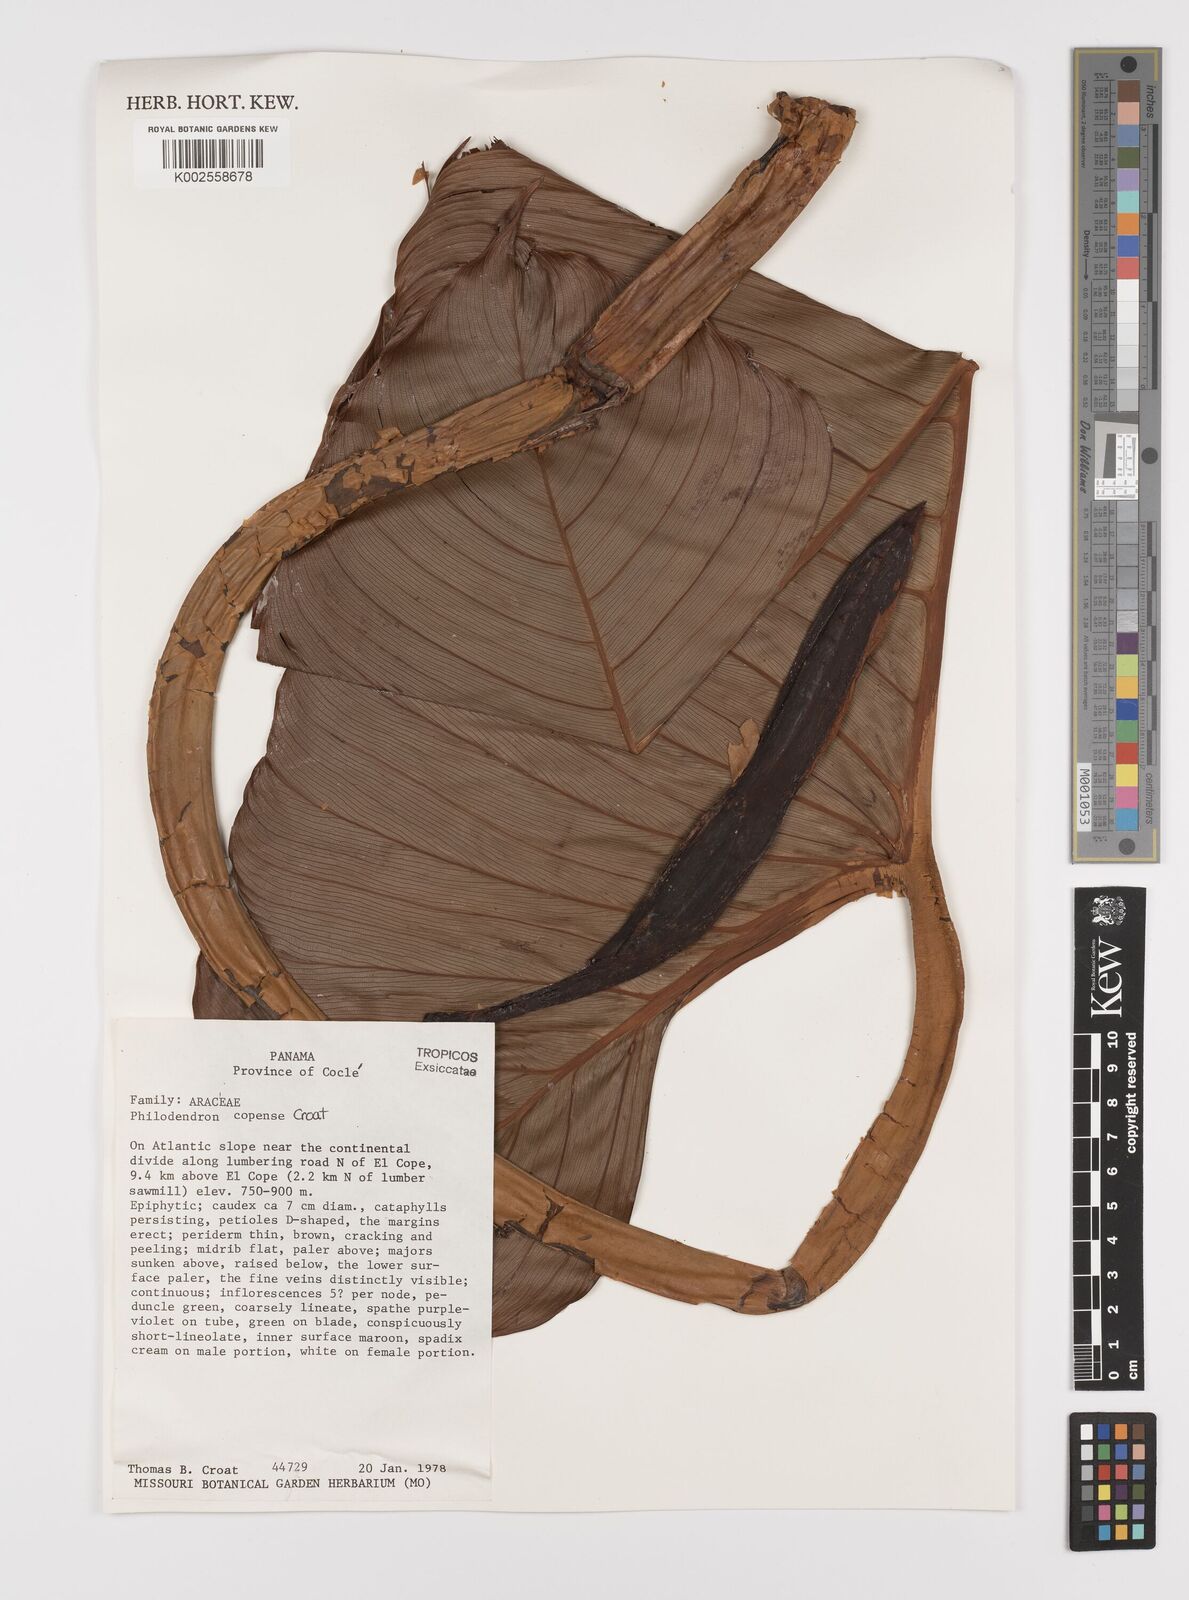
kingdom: Plantae
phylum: Tracheophyta
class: Liliopsida
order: Alismatales
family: Araceae
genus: Philodendron
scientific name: Philodendron copense
